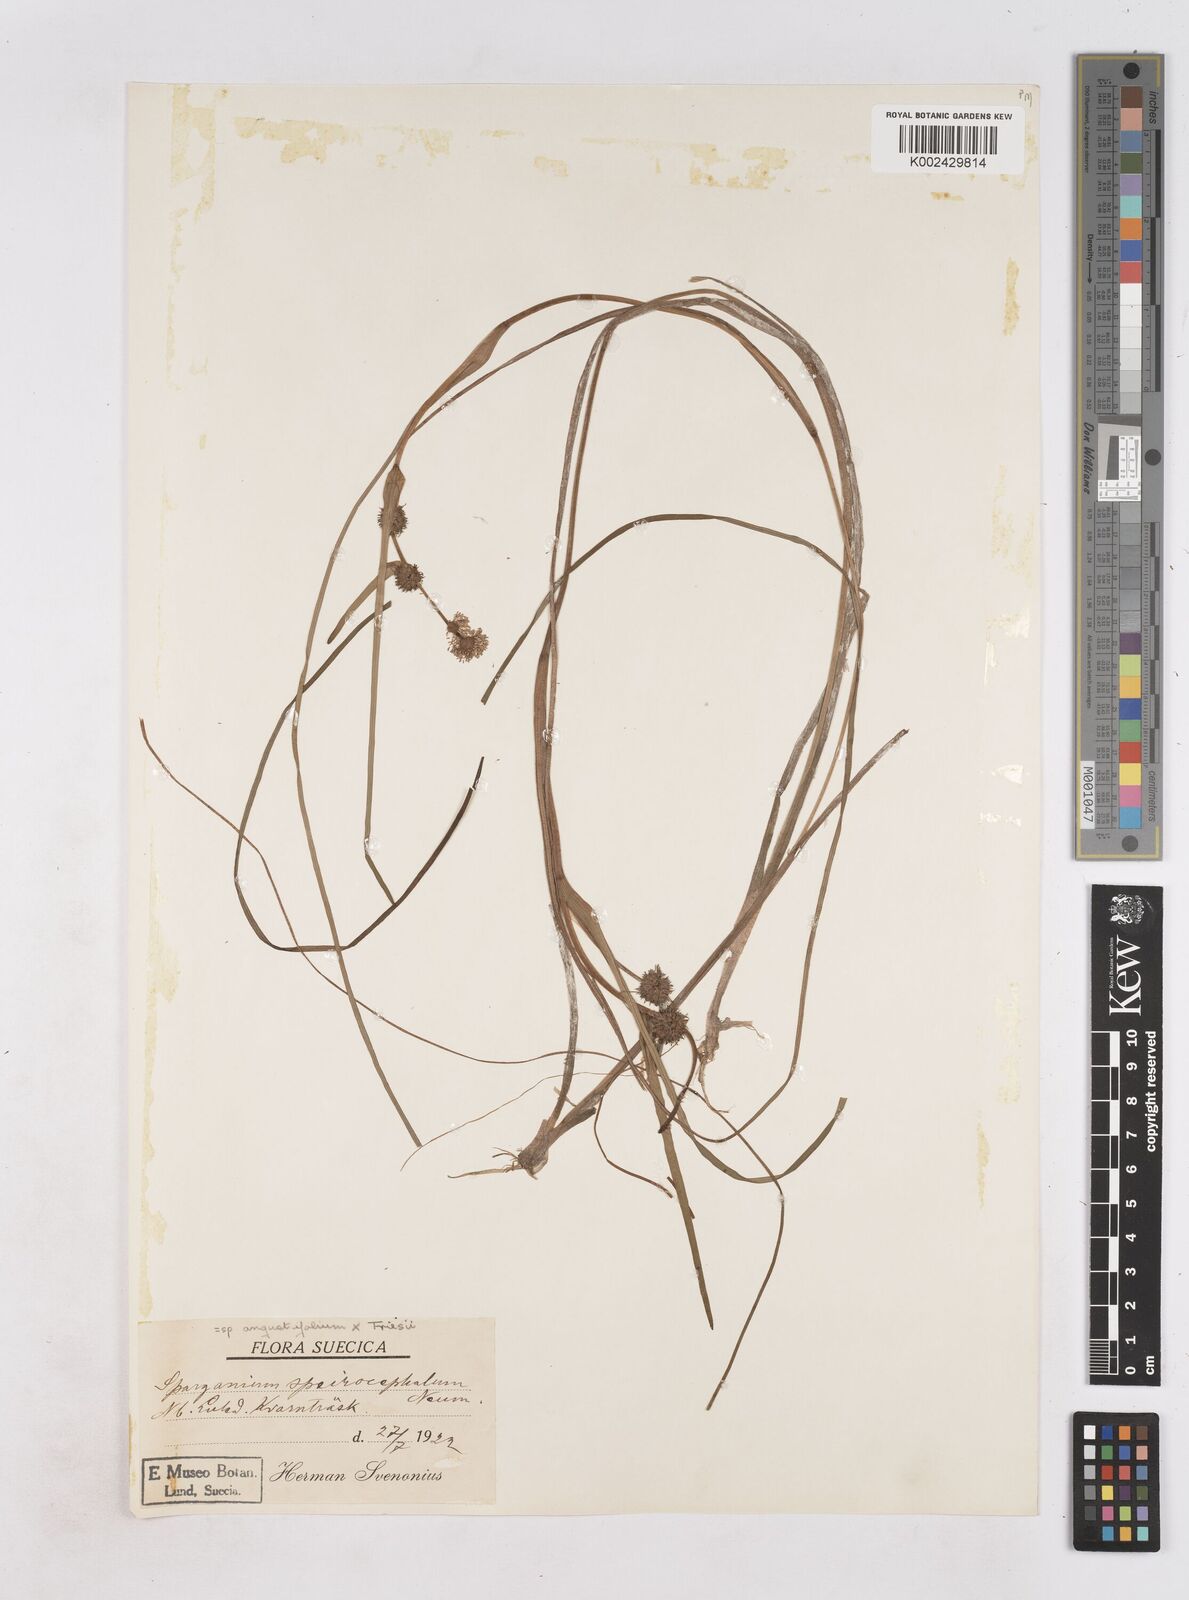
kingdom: Plantae
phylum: Tracheophyta
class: Liliopsida
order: Poales
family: Typhaceae
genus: Sparganium
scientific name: Sparganium
